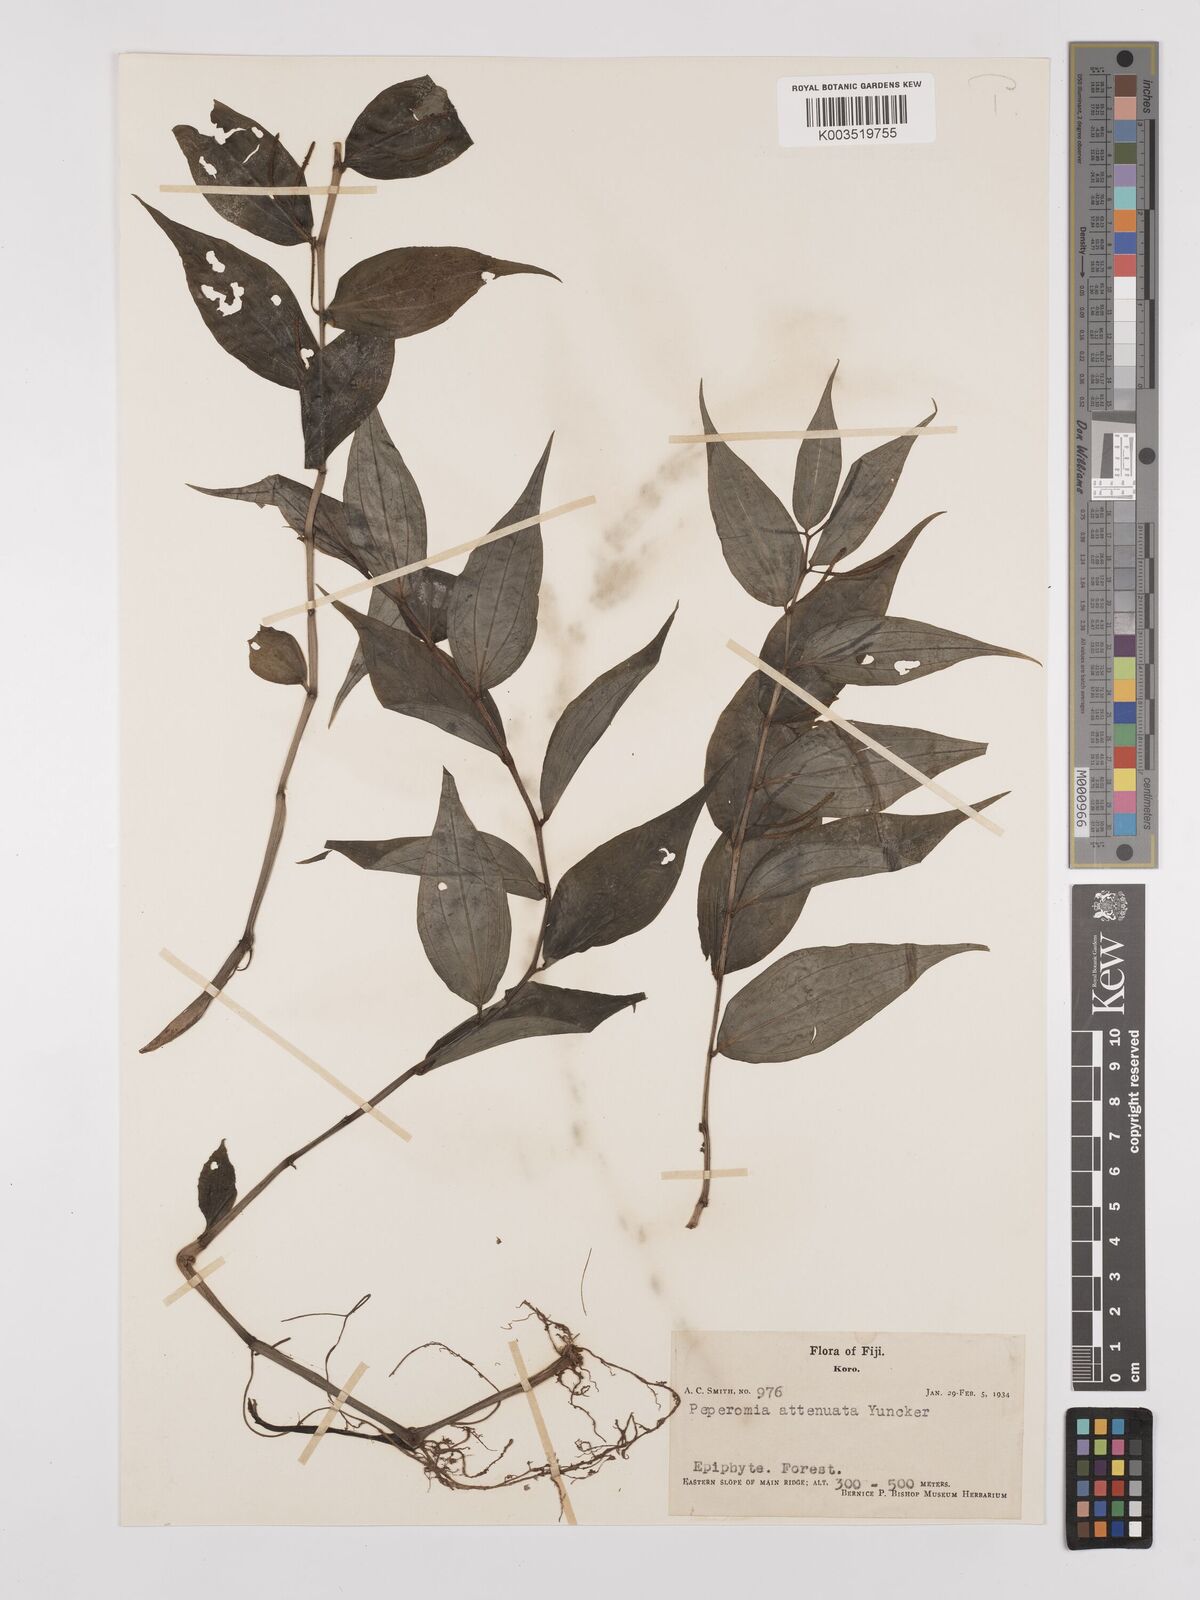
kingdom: Plantae
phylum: Tracheophyta
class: Magnoliopsida
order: Piperales
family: Piperaceae
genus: Peperomia
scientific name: Peperomia attenuata
